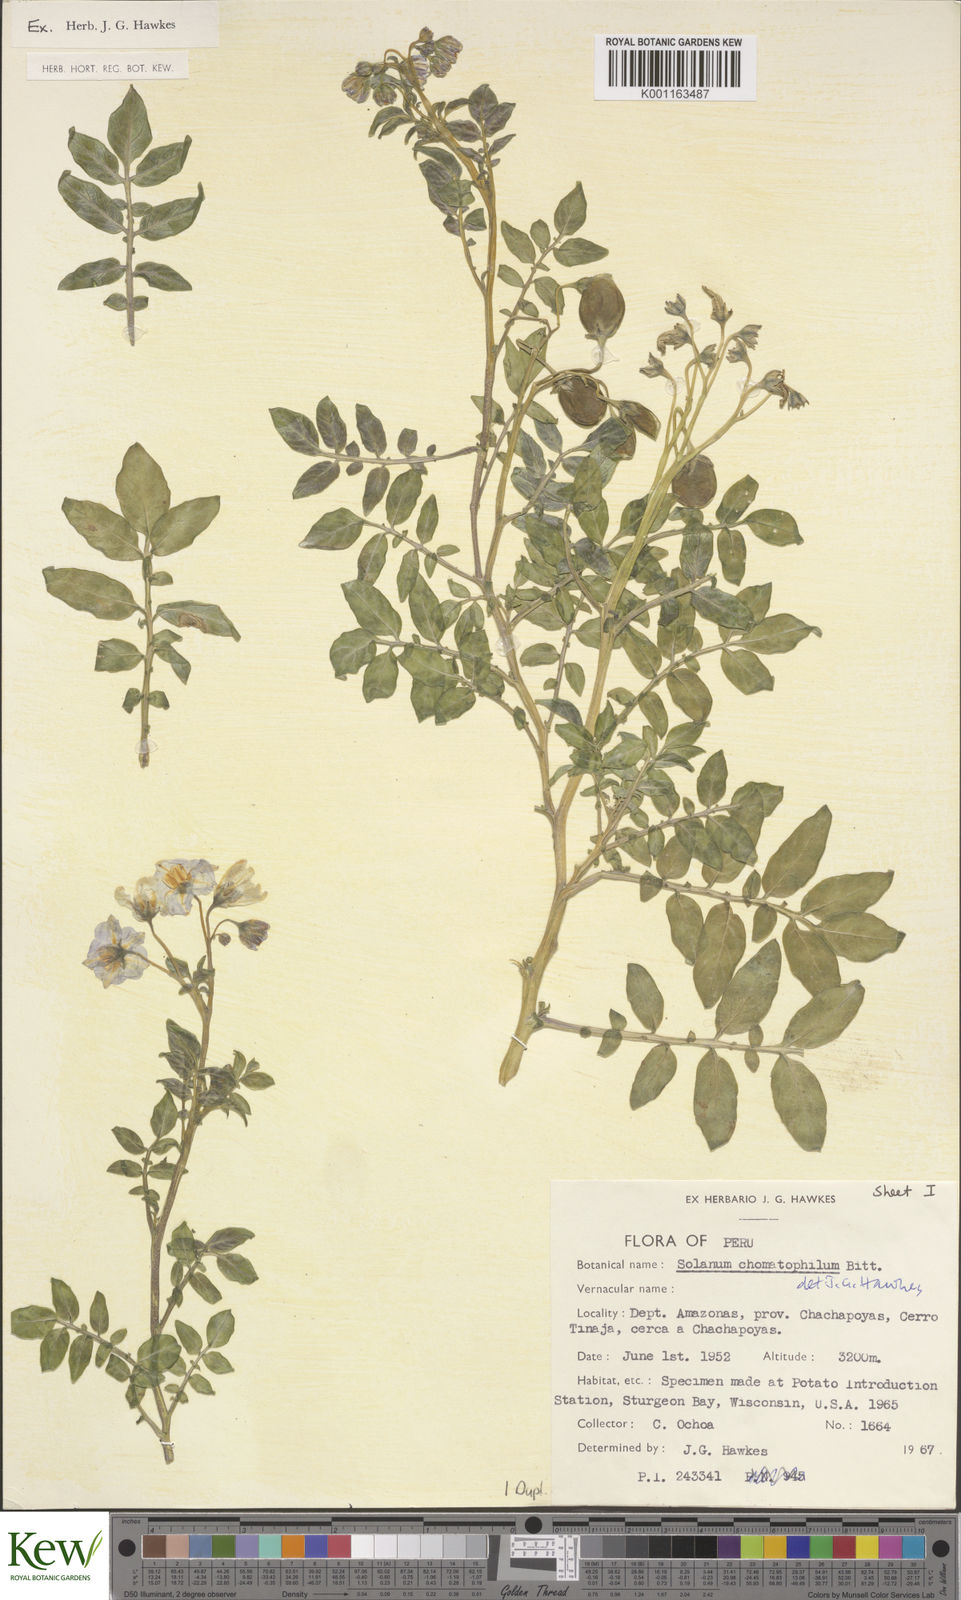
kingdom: Plantae
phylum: Tracheophyta
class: Magnoliopsida
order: Solanales
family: Solanaceae
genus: Solanum
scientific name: Solanum chomatophilum
